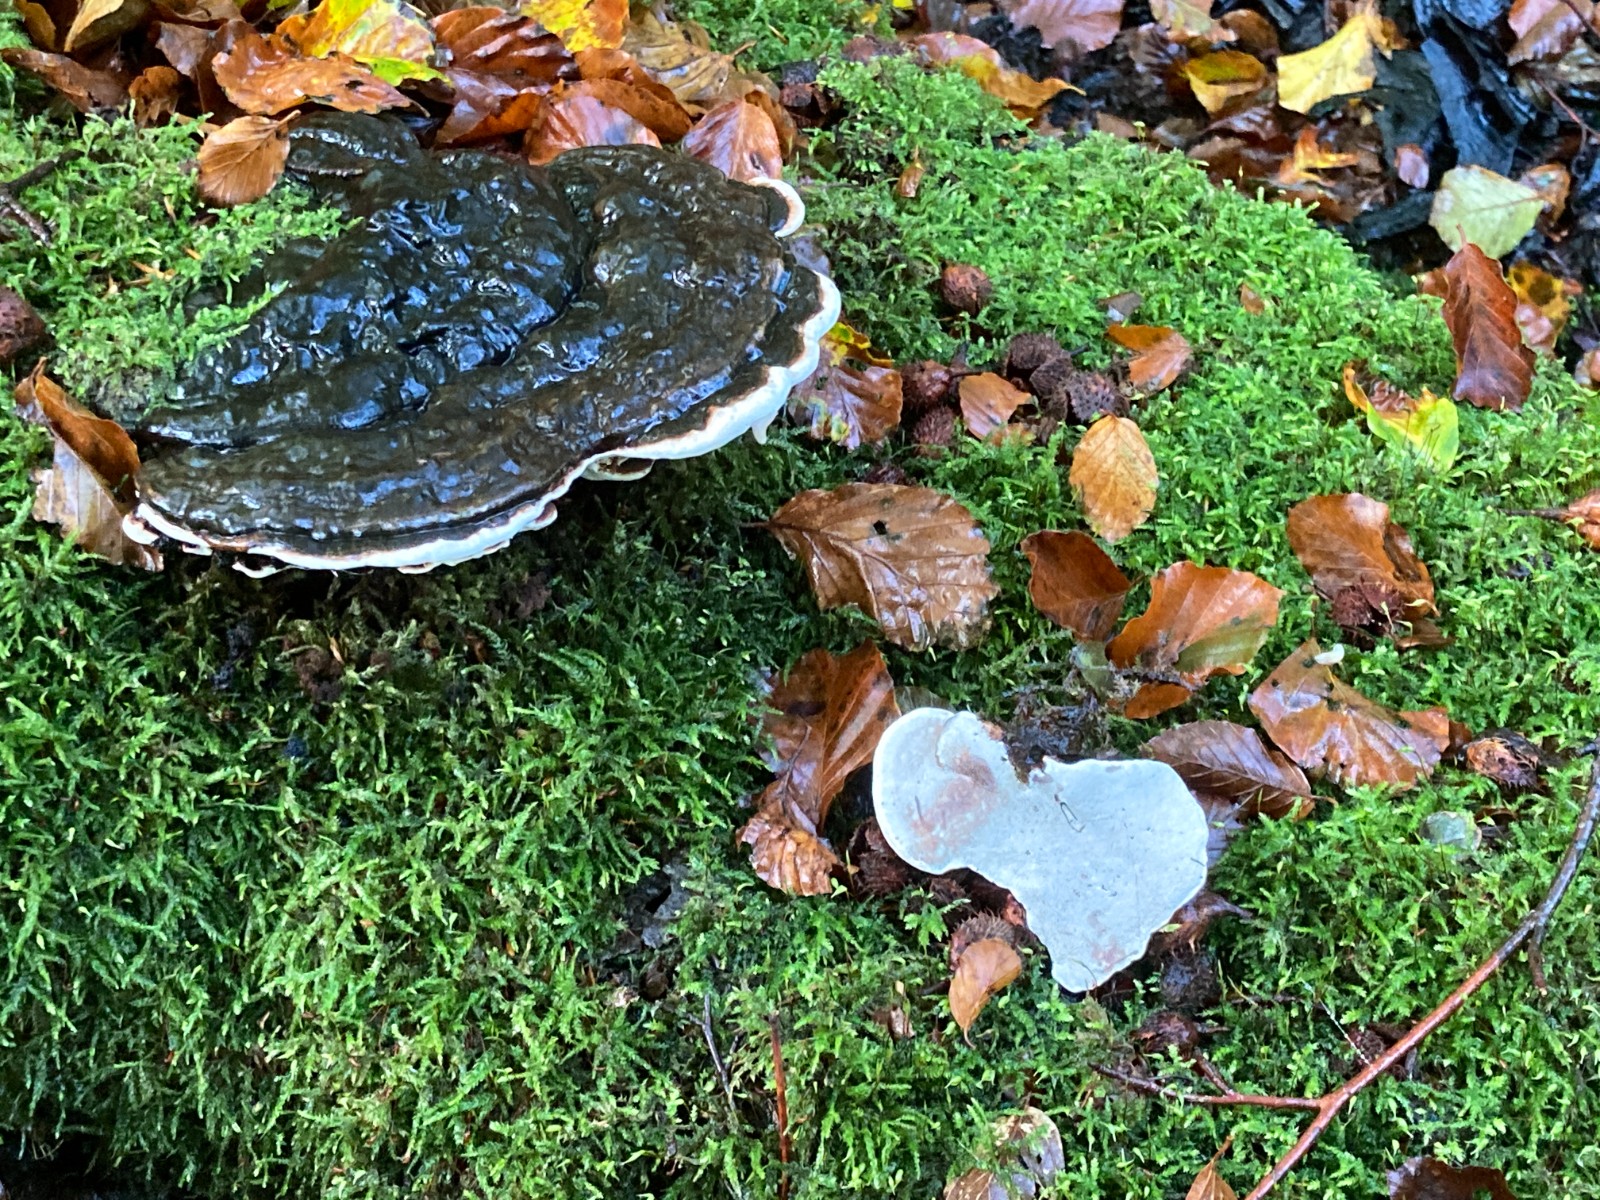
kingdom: Fungi
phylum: Basidiomycota
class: Agaricomycetes
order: Polyporales
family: Polyporaceae
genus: Ganoderma
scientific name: Ganoderma applanatum
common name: flad lakporesvamp
